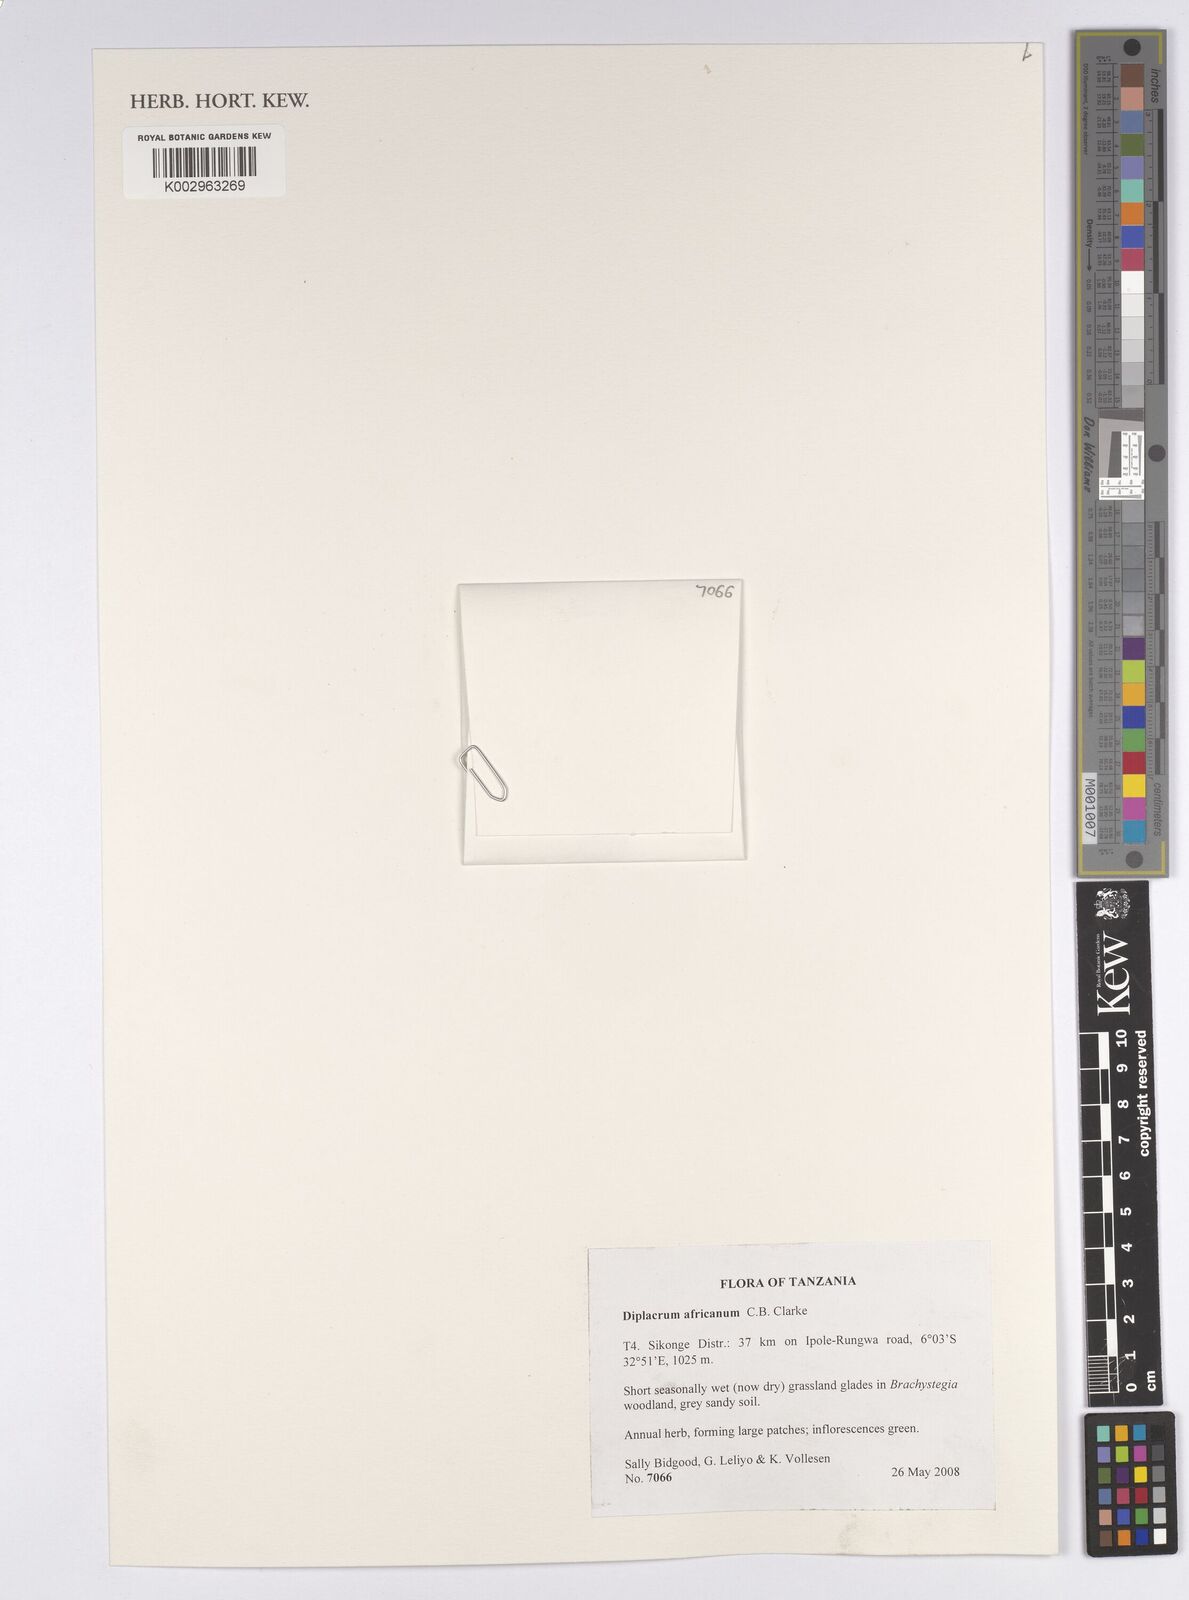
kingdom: Plantae
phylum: Tracheophyta
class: Liliopsida
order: Poales
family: Cyperaceae
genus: Diplacrum
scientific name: Diplacrum africanum
